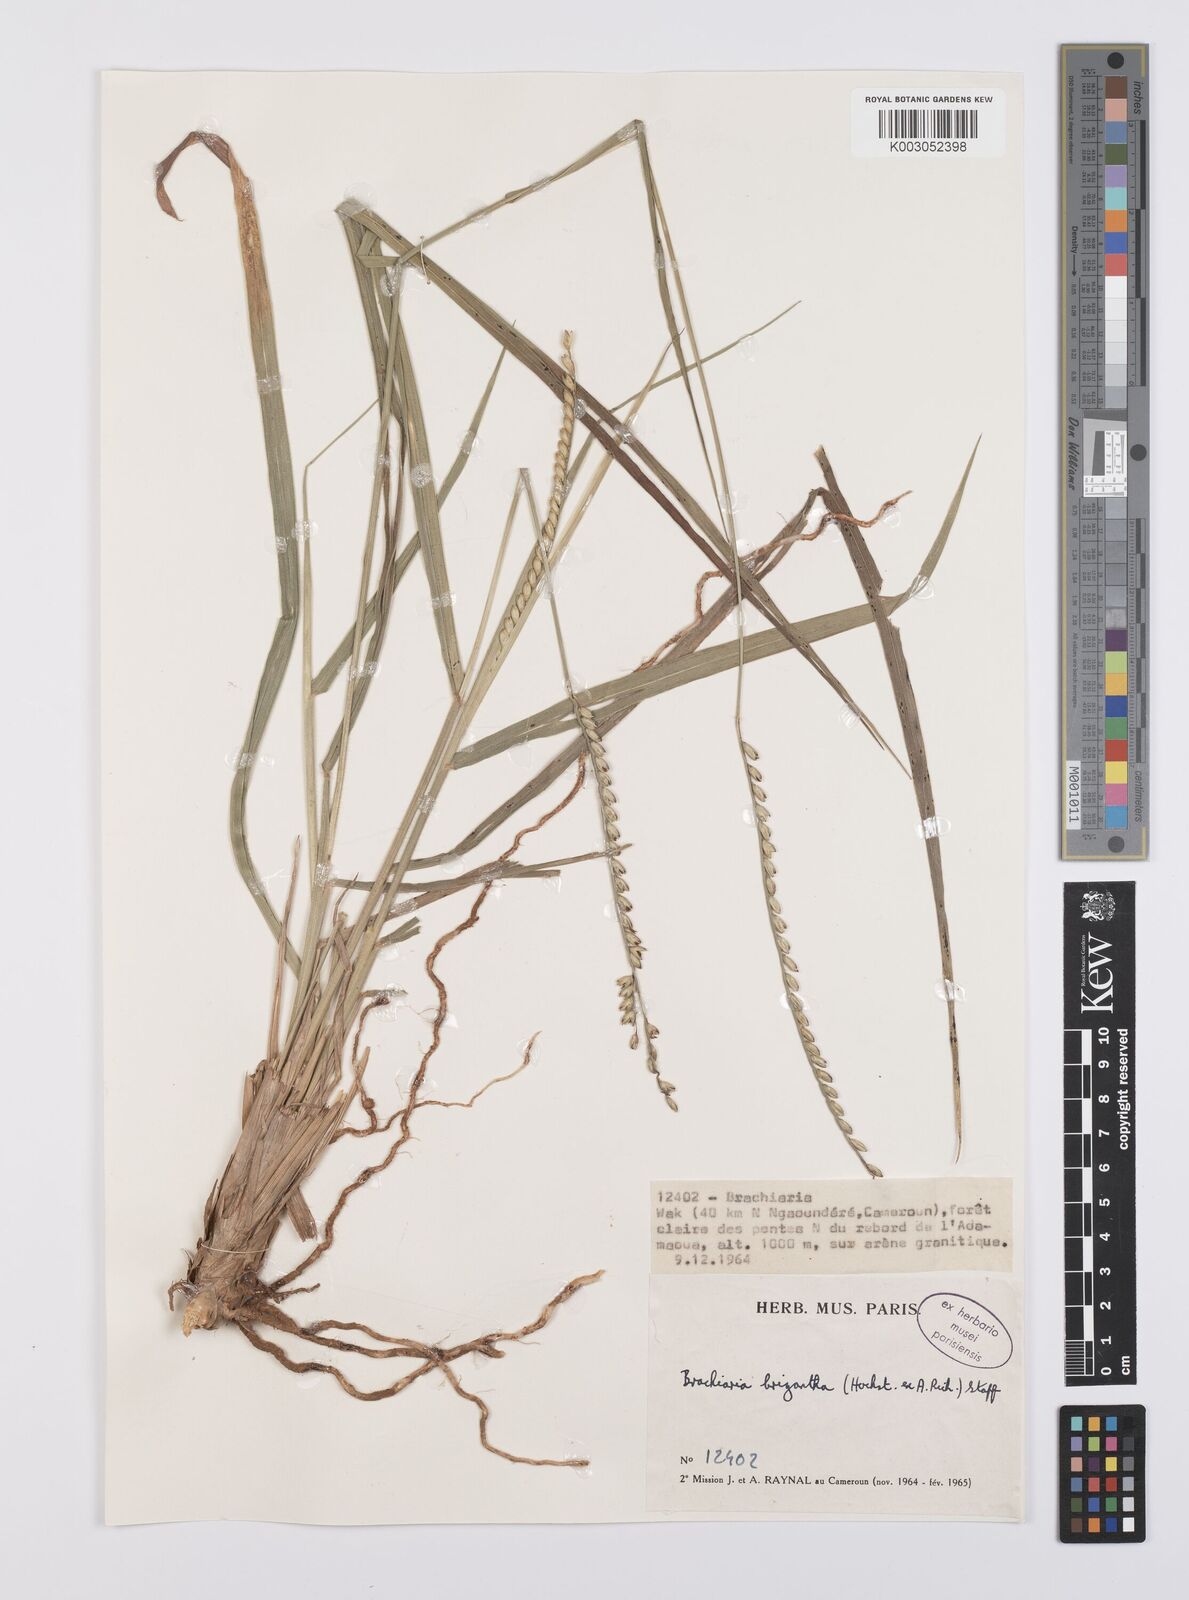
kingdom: Plantae
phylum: Tracheophyta
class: Liliopsida
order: Poales
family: Poaceae
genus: Urochloa
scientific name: Urochloa brizantha
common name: Palisade signalgrass
